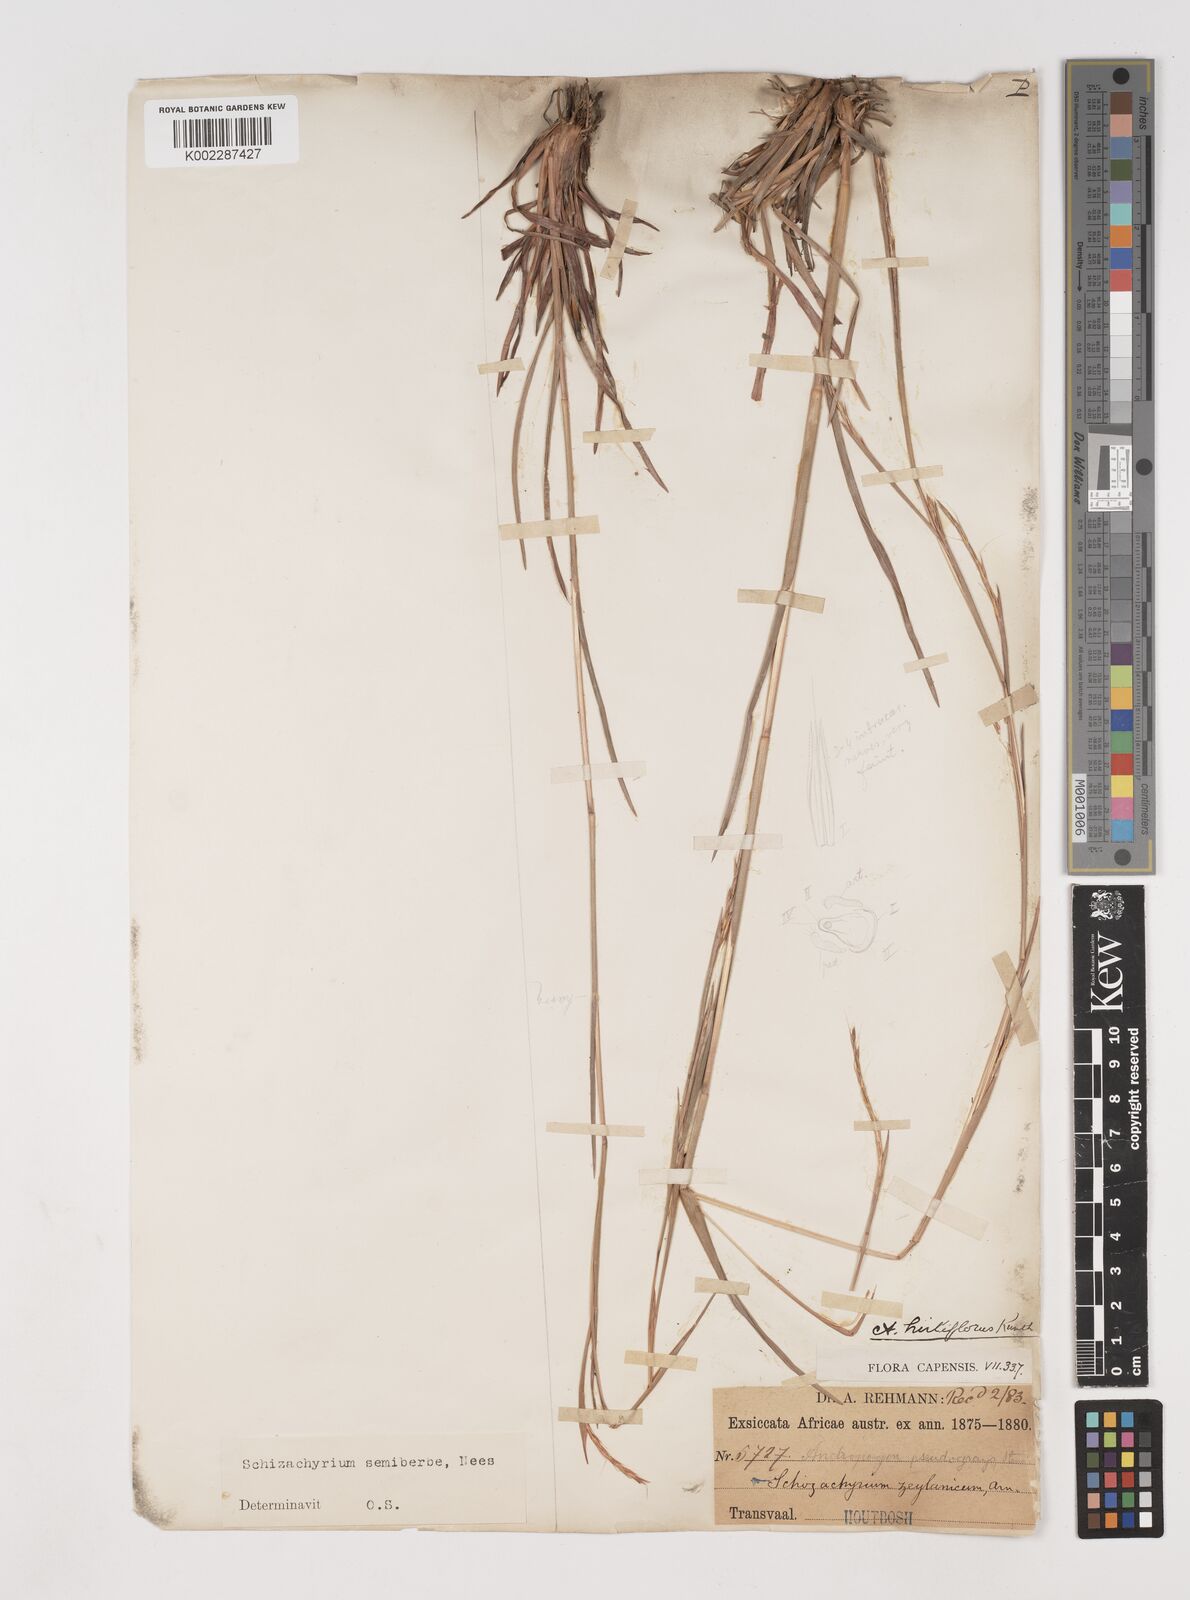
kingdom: Plantae
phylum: Tracheophyta
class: Liliopsida
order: Poales
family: Poaceae
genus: Schizachyrium
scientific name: Schizachyrium sanguineum
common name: Crimson bluestem
